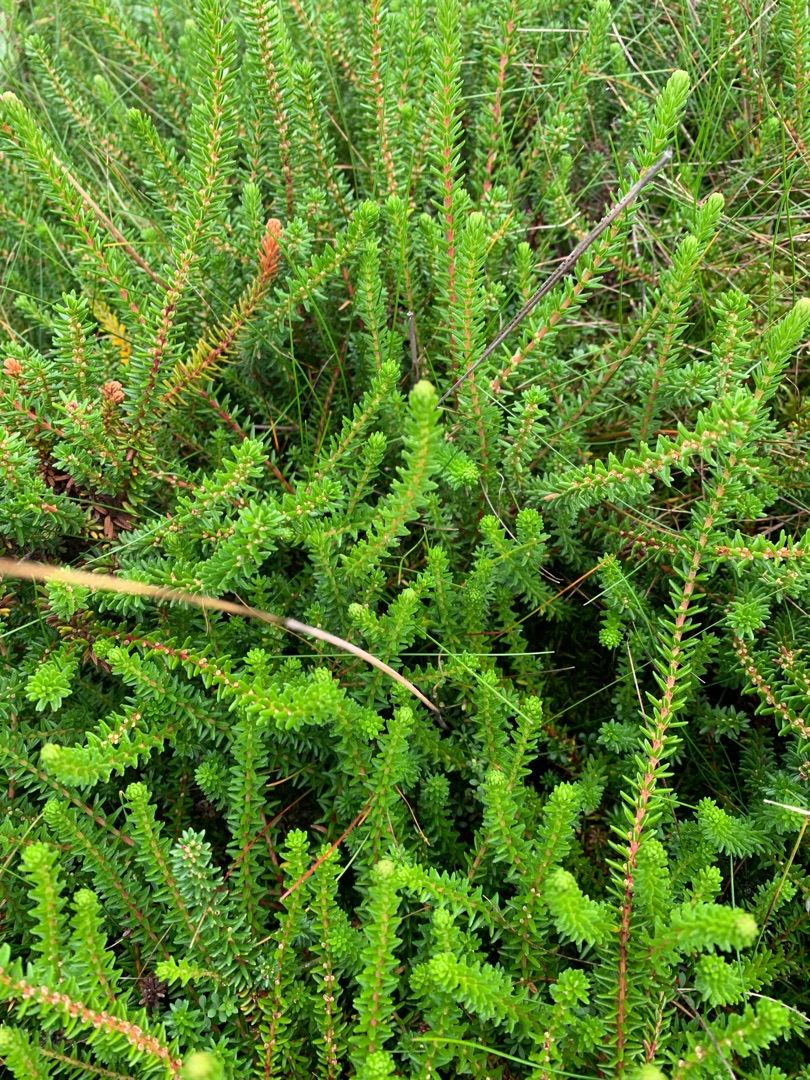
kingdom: Plantae
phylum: Tracheophyta
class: Magnoliopsida
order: Ericales
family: Ericaceae
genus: Empetrum
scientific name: Empetrum nigrum
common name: Revling
